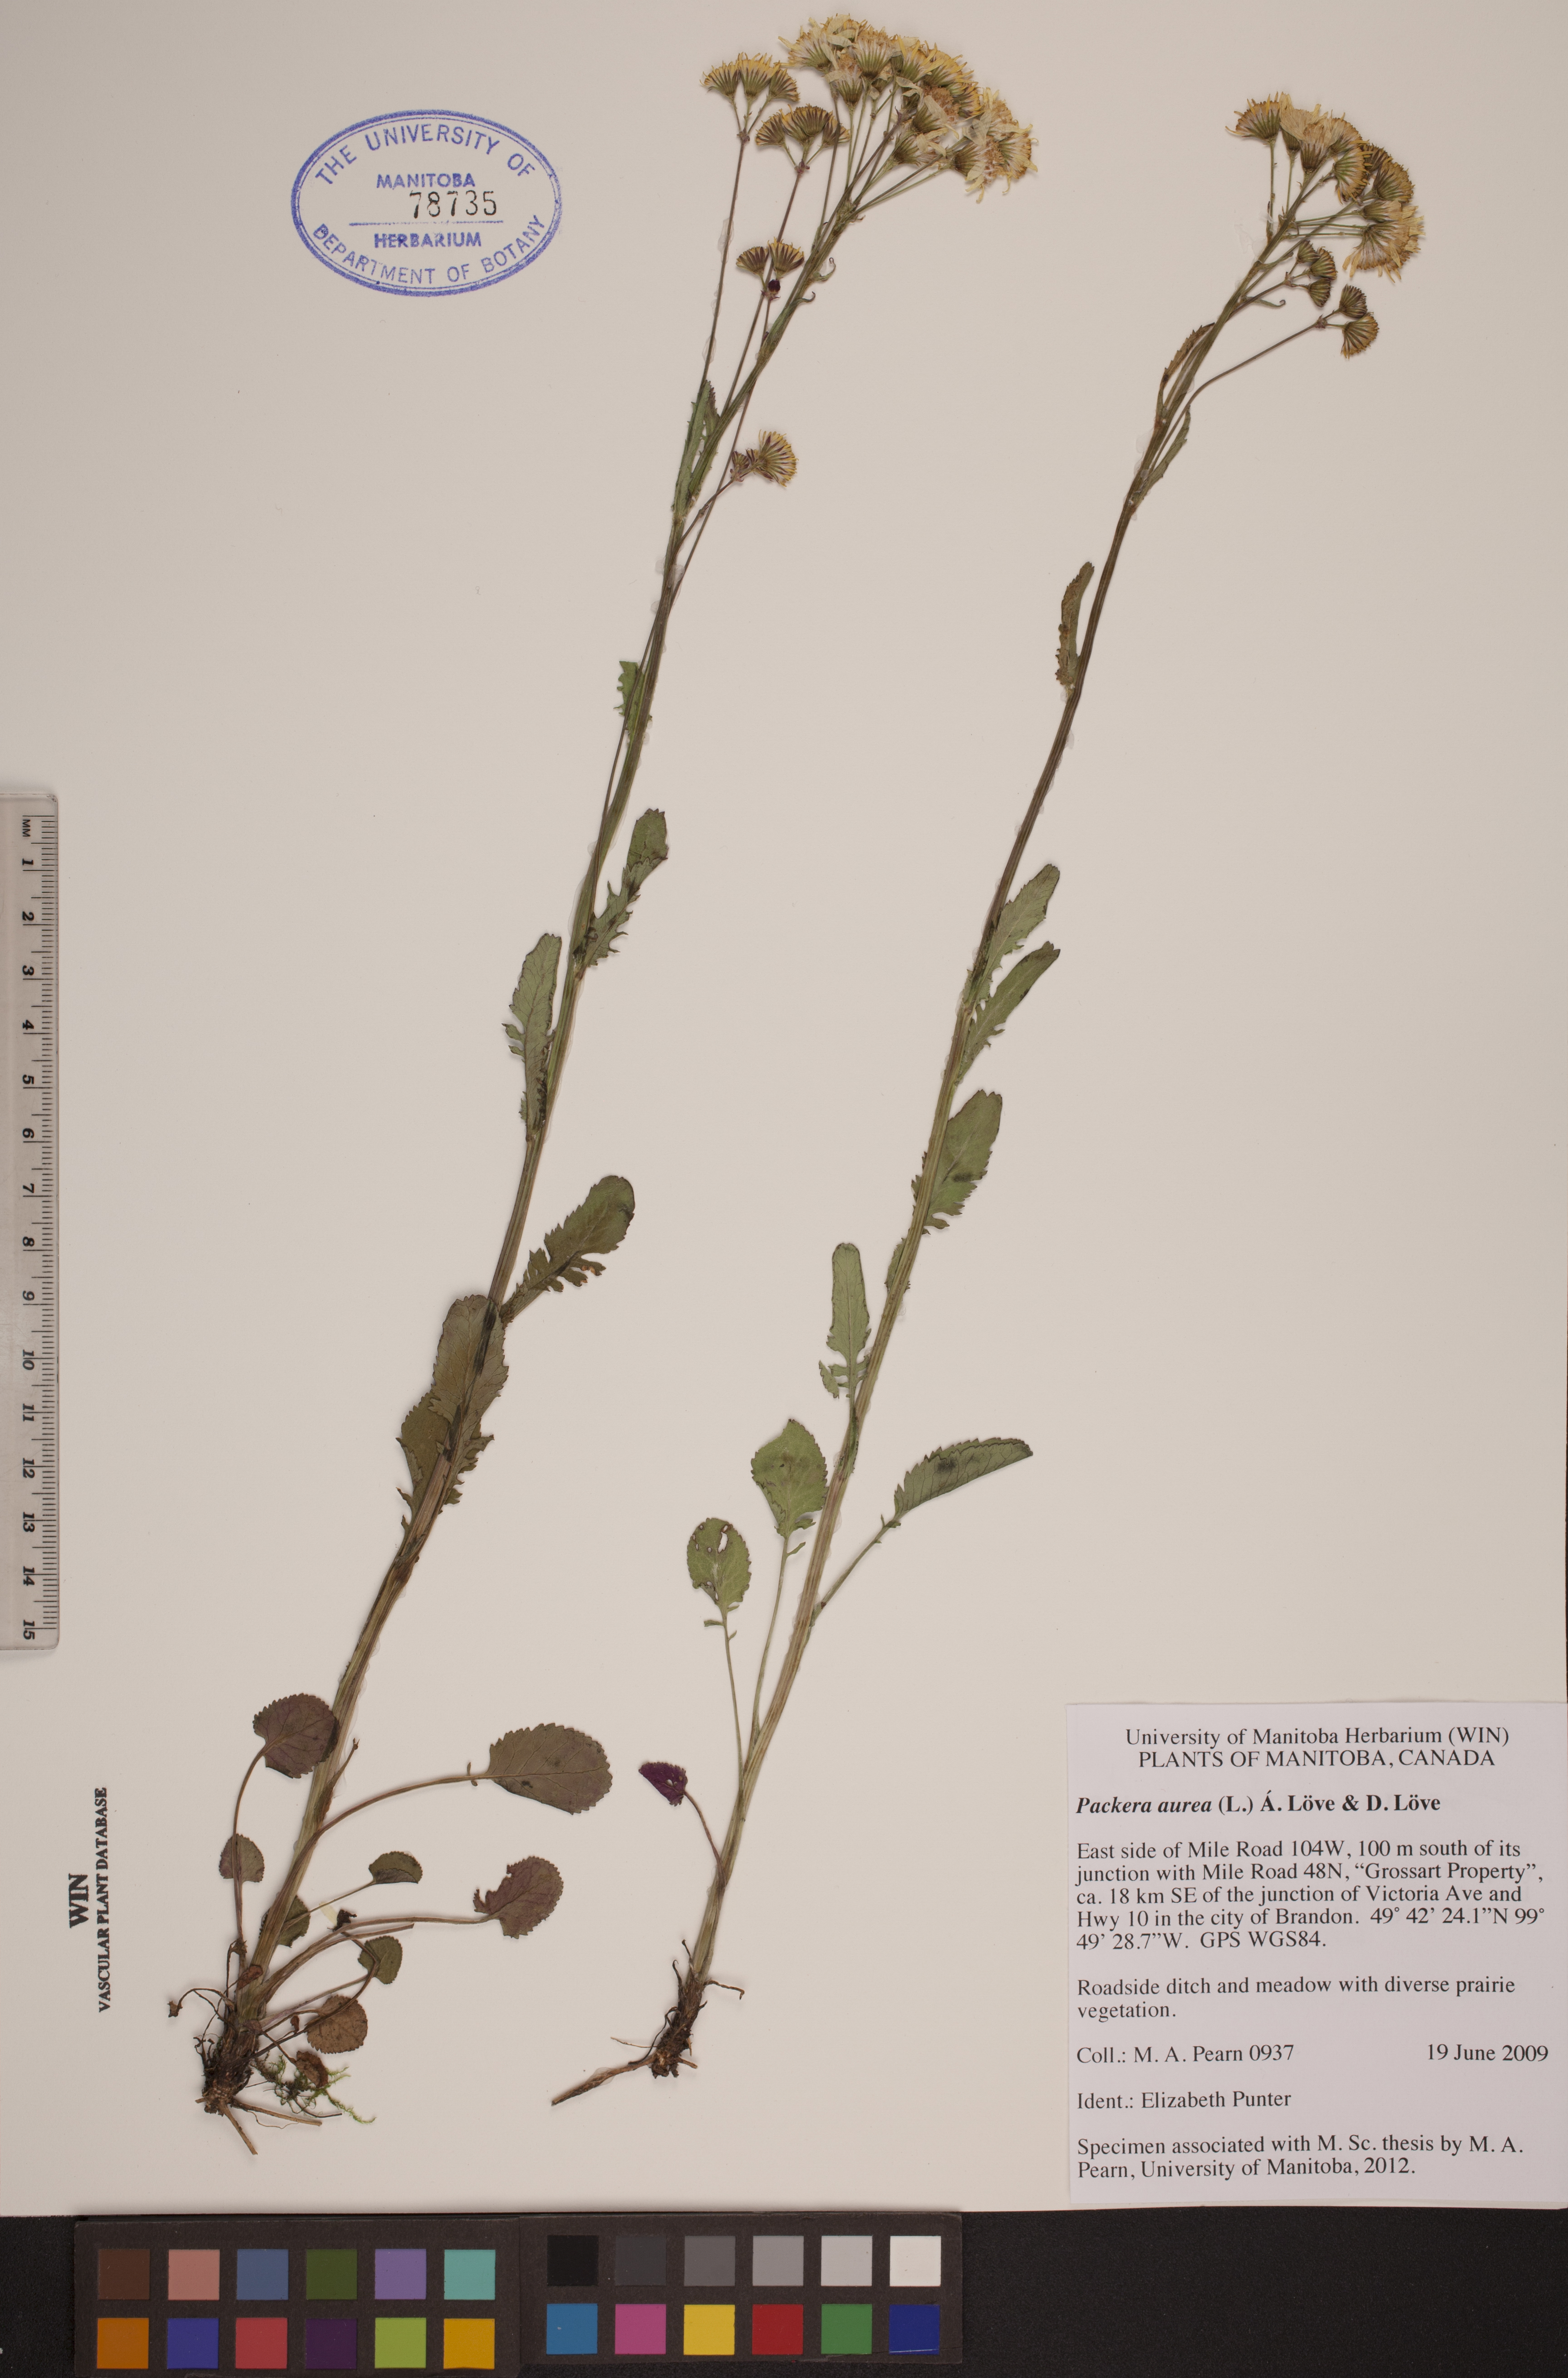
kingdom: Plantae
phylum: Tracheophyta
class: Magnoliopsida
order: Asterales
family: Asteraceae
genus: Packera
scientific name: Packera aurea
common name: Golden groundsel
